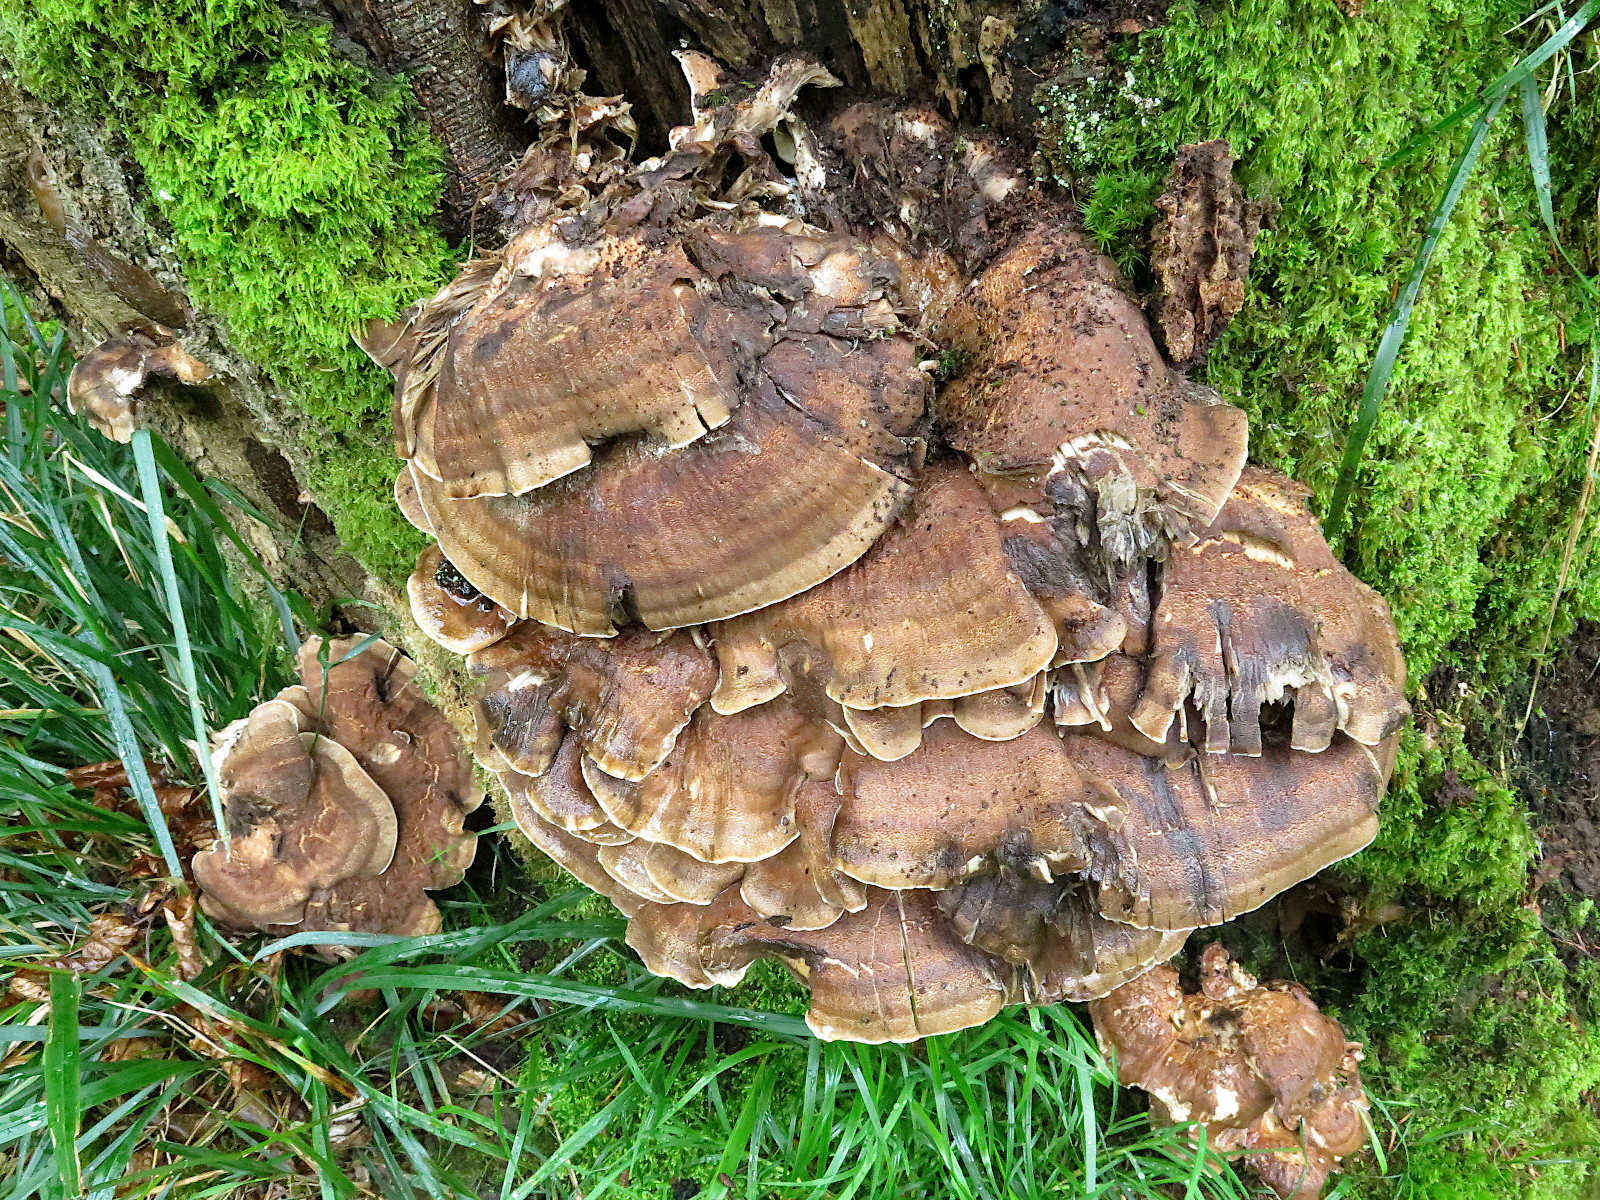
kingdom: Fungi
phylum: Basidiomycota
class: Agaricomycetes
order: Polyporales
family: Meripilaceae
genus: Meripilus
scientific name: Meripilus giganteus
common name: kæmpeporesvamp
